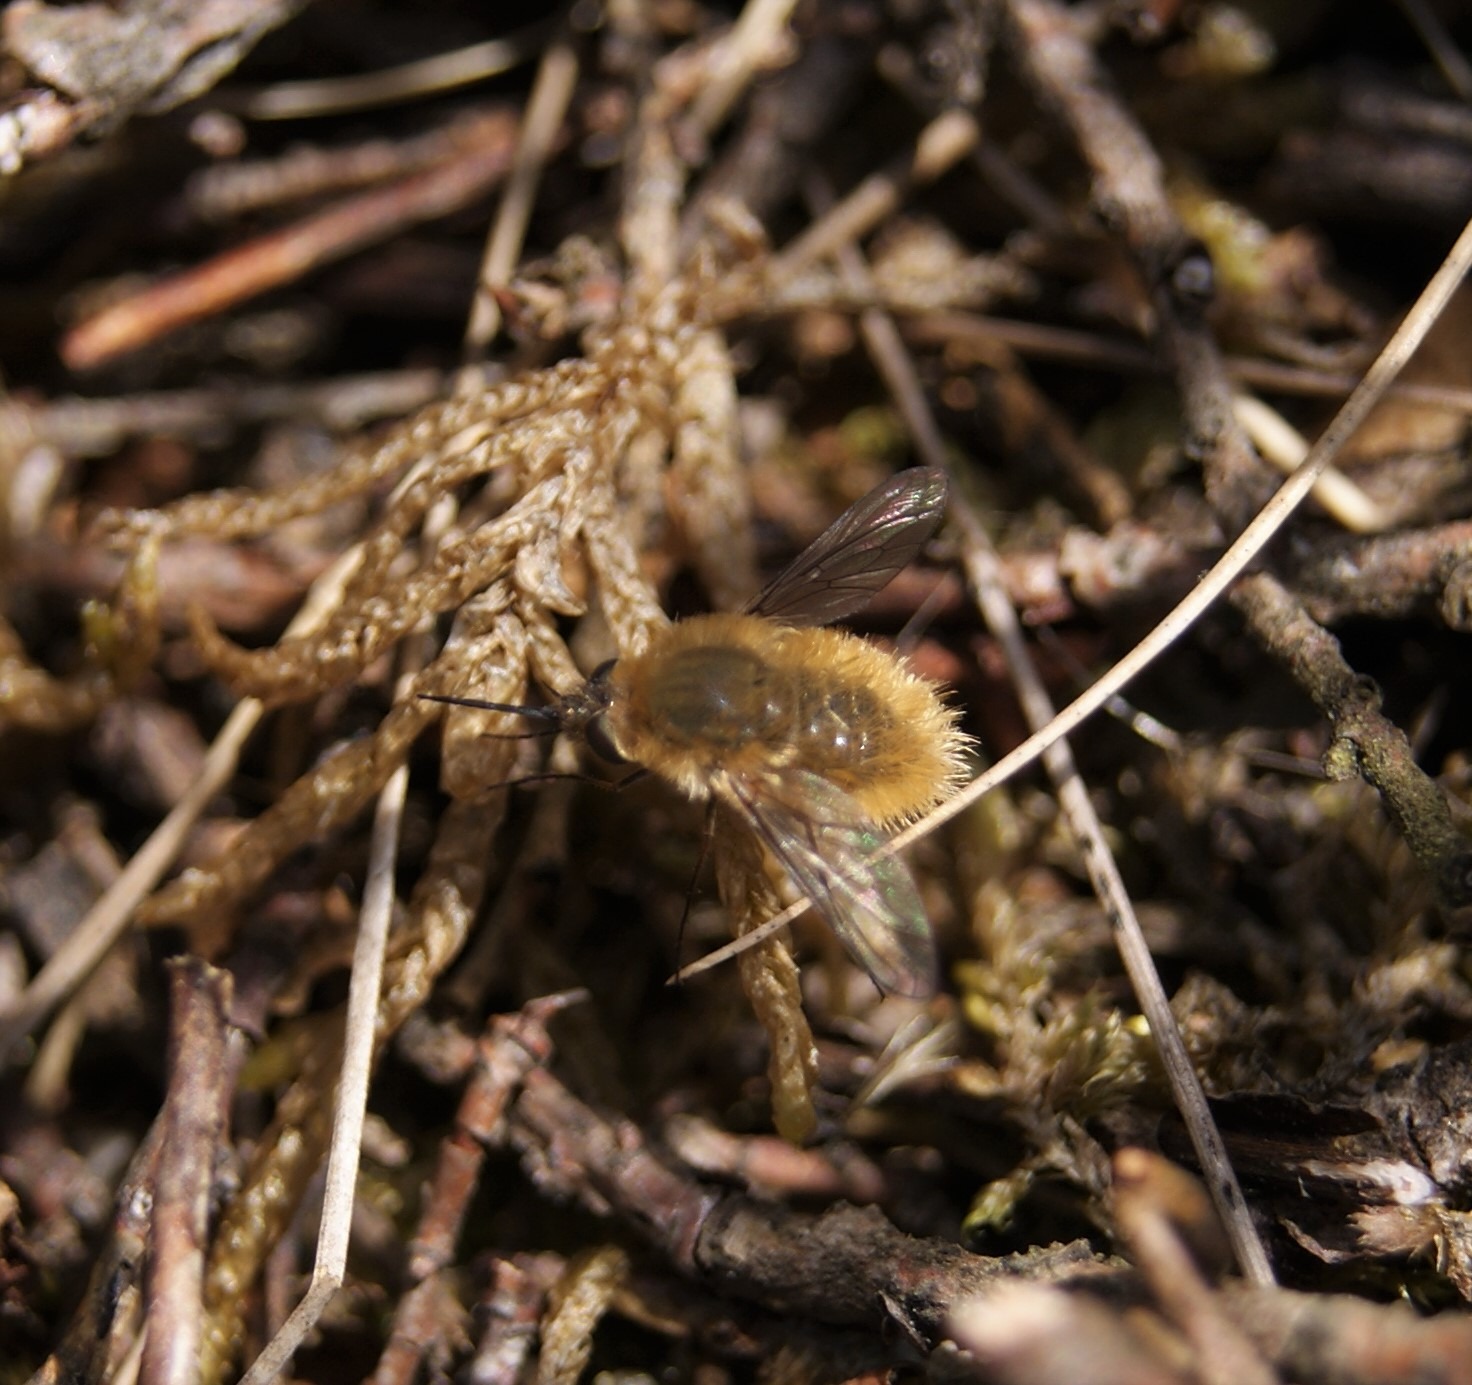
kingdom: Animalia
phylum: Arthropoda
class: Insecta
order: Diptera
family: Bombyliidae
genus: Systoechus
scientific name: Systoechus ctenopterus
